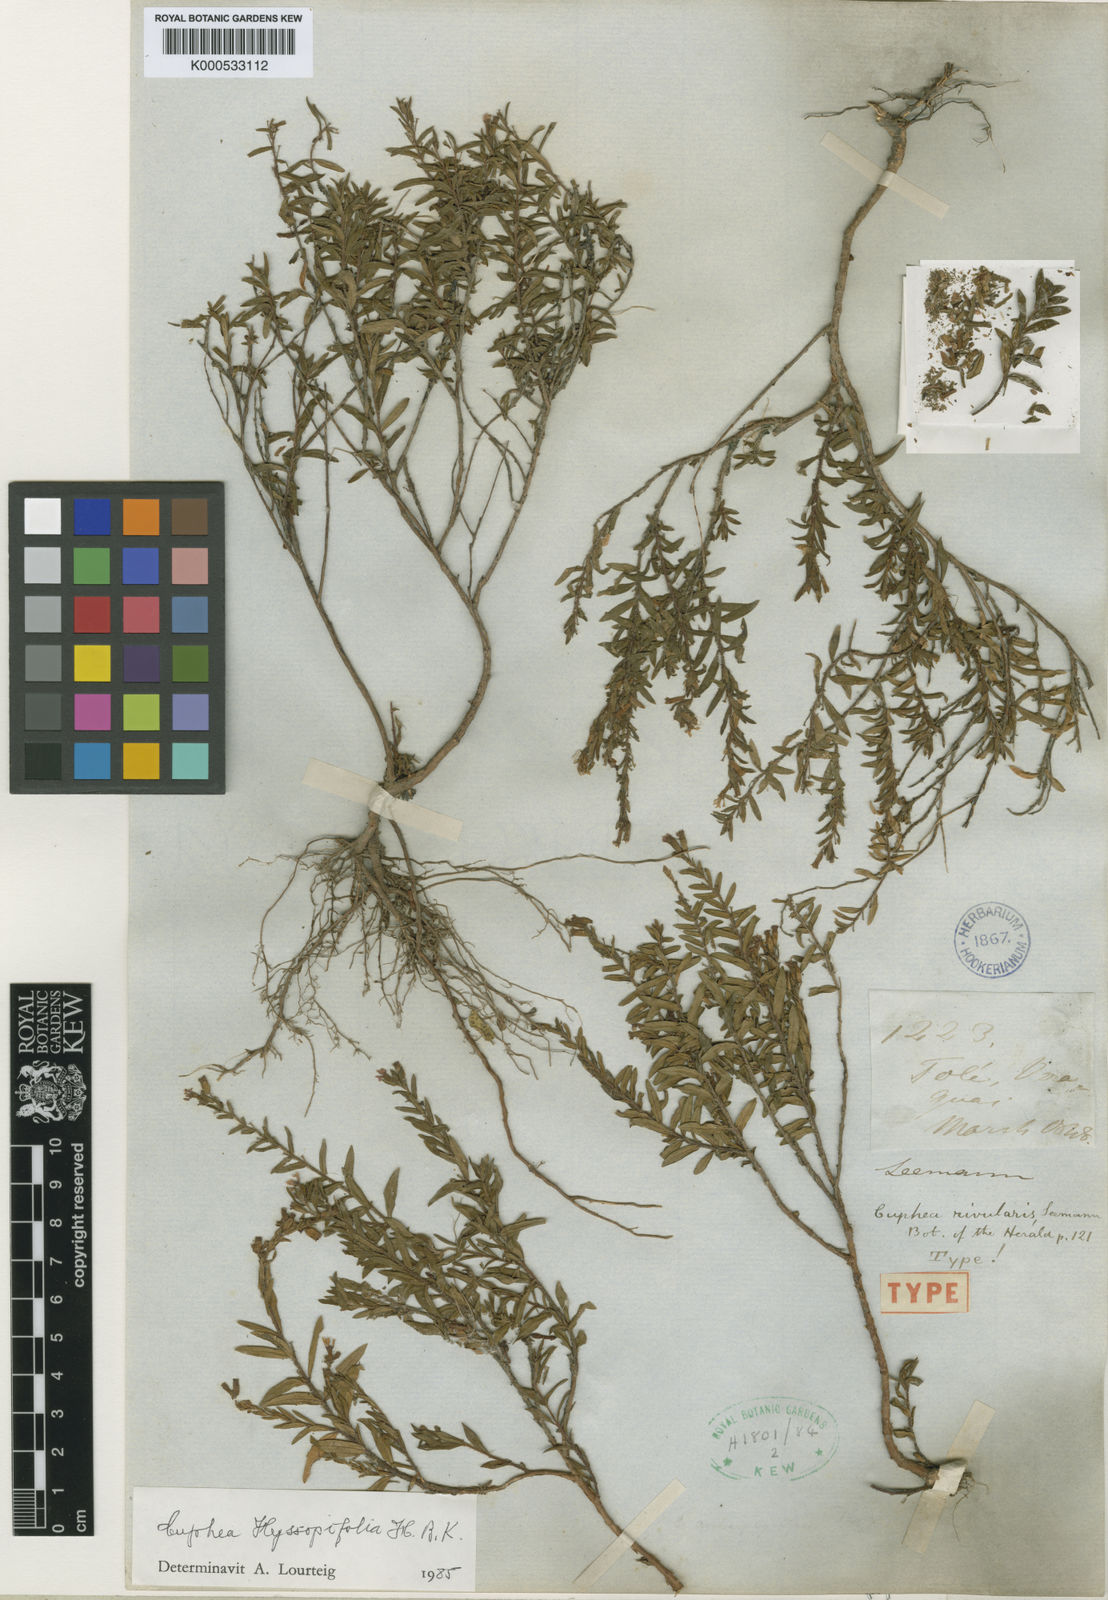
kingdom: Plantae
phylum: Tracheophyta
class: Magnoliopsida
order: Myrtales
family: Lythraceae
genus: Cuphea
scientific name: Cuphea hyssopifolia
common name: False heather
